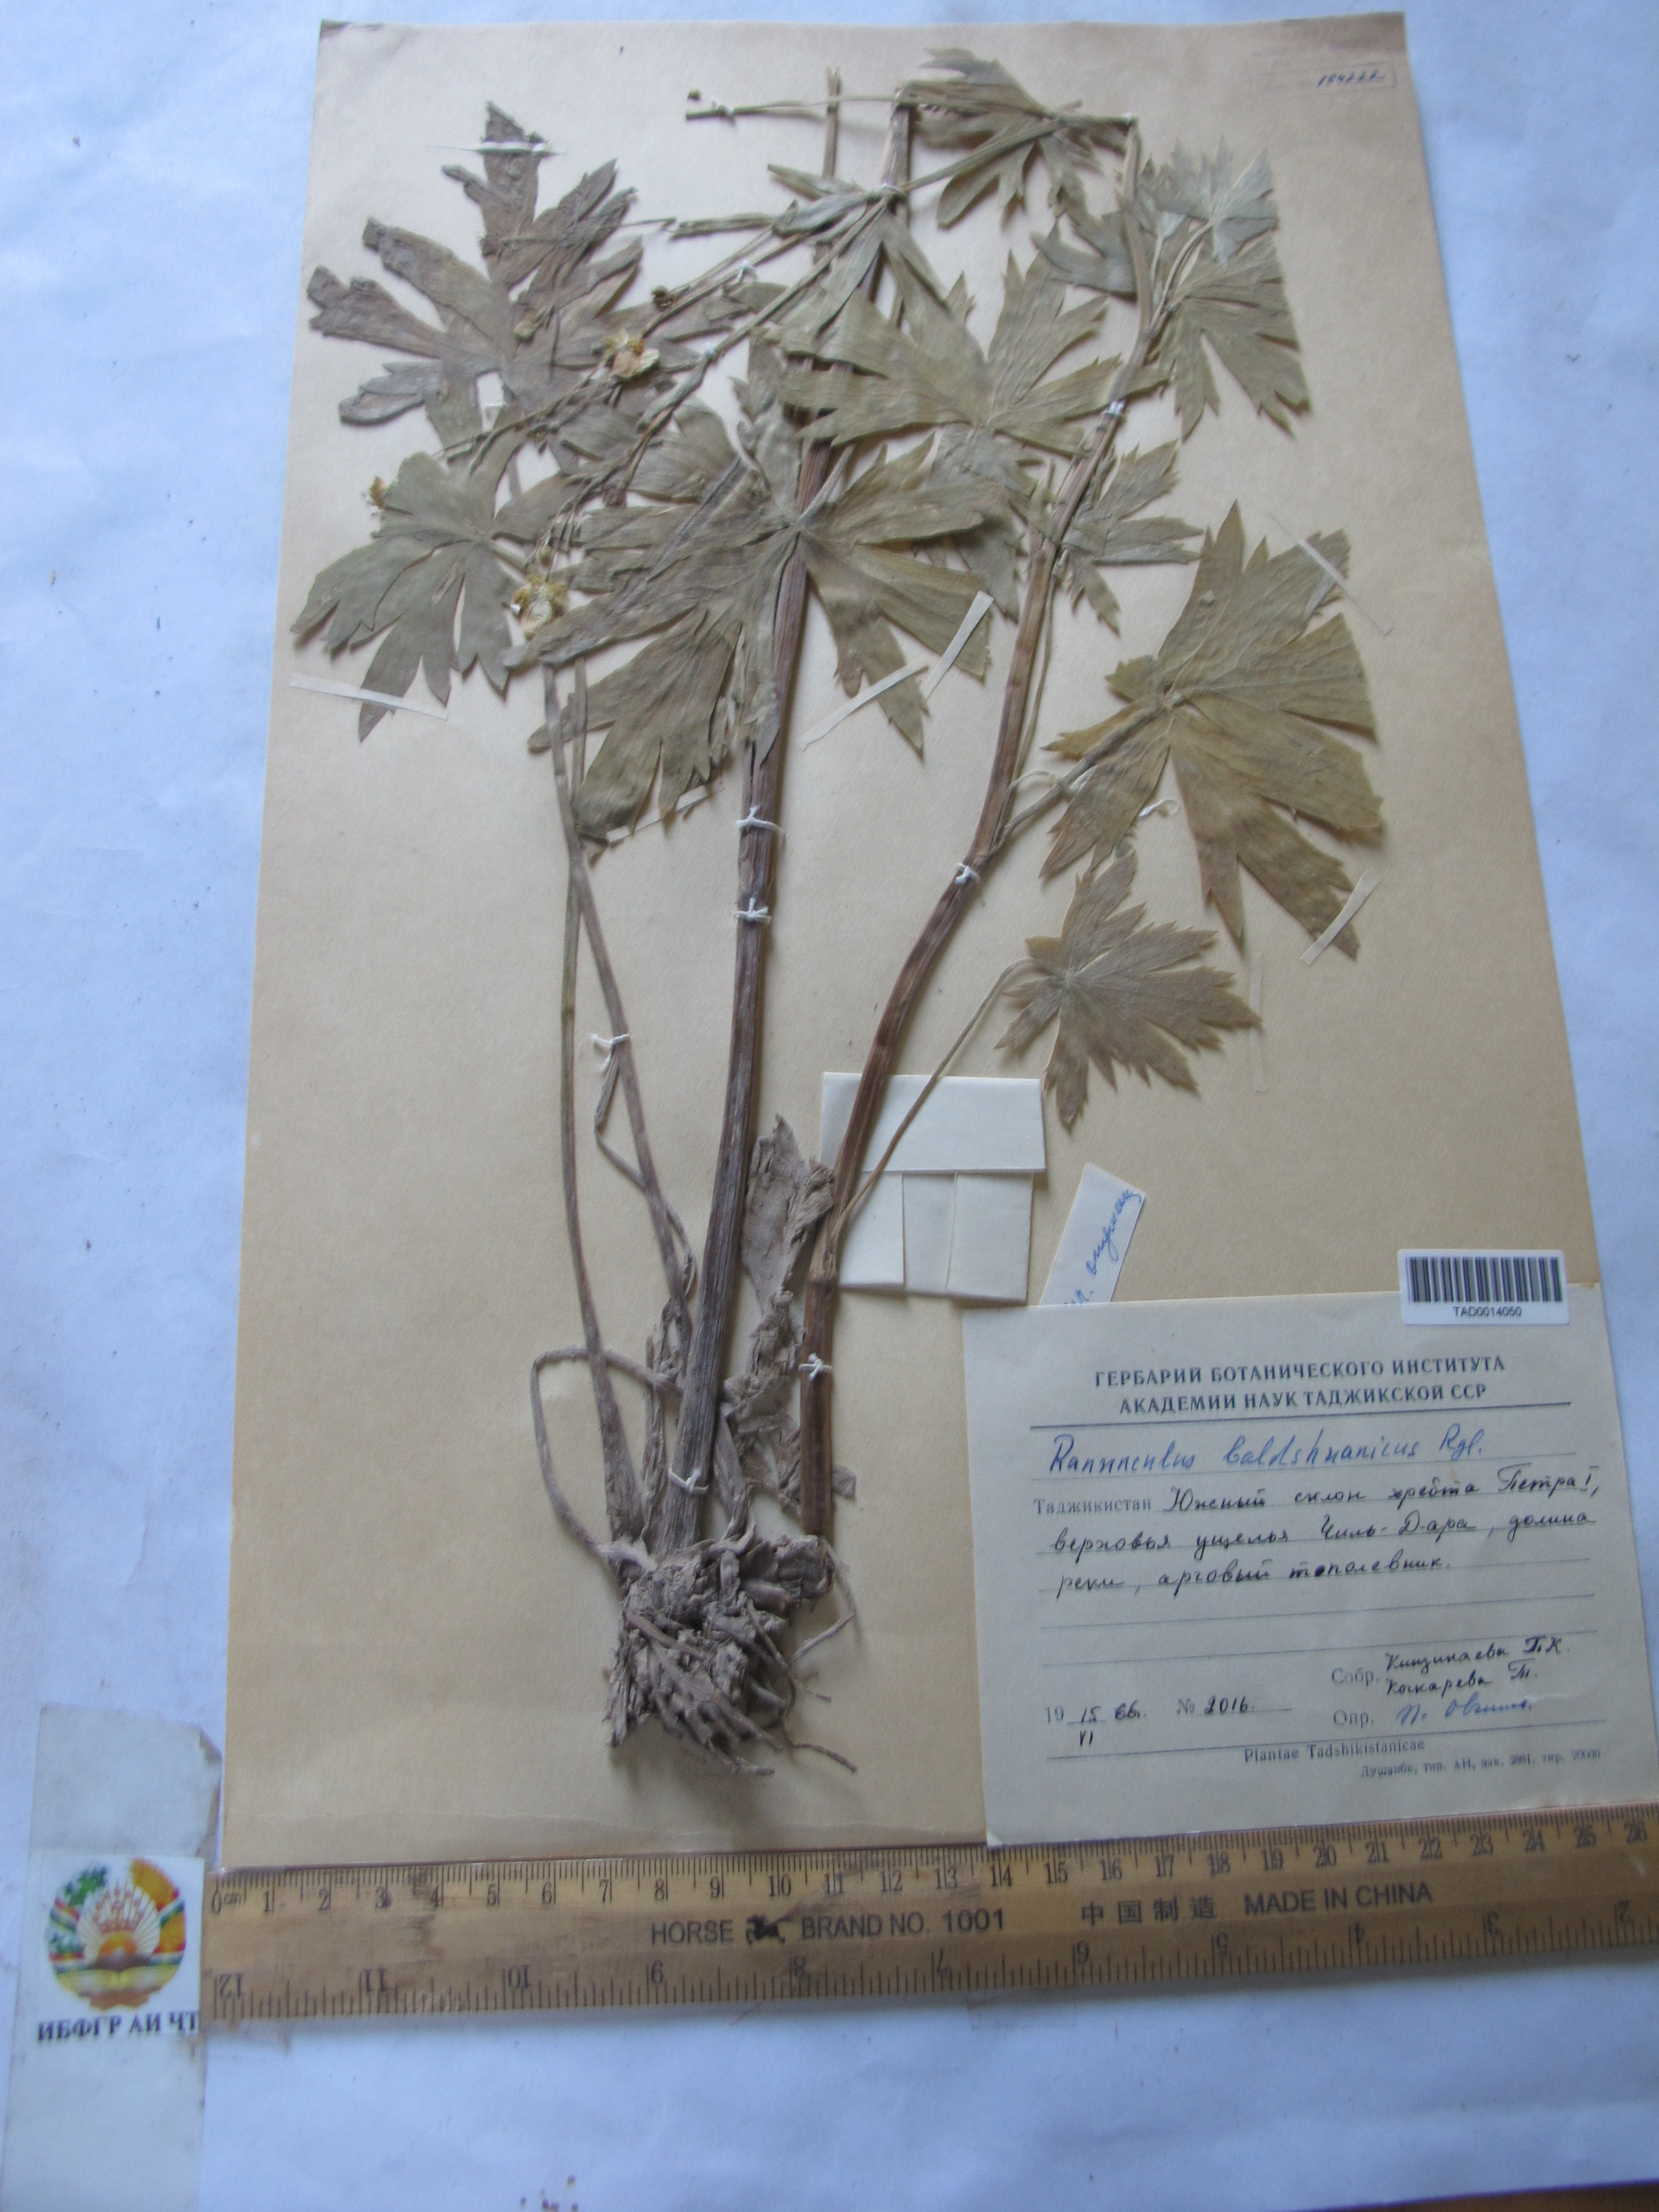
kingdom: Plantae
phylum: Tracheophyta
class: Magnoliopsida
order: Ranunculales
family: Ranunculaceae
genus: Ranunculus
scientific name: Ranunculus baldshuanicus
